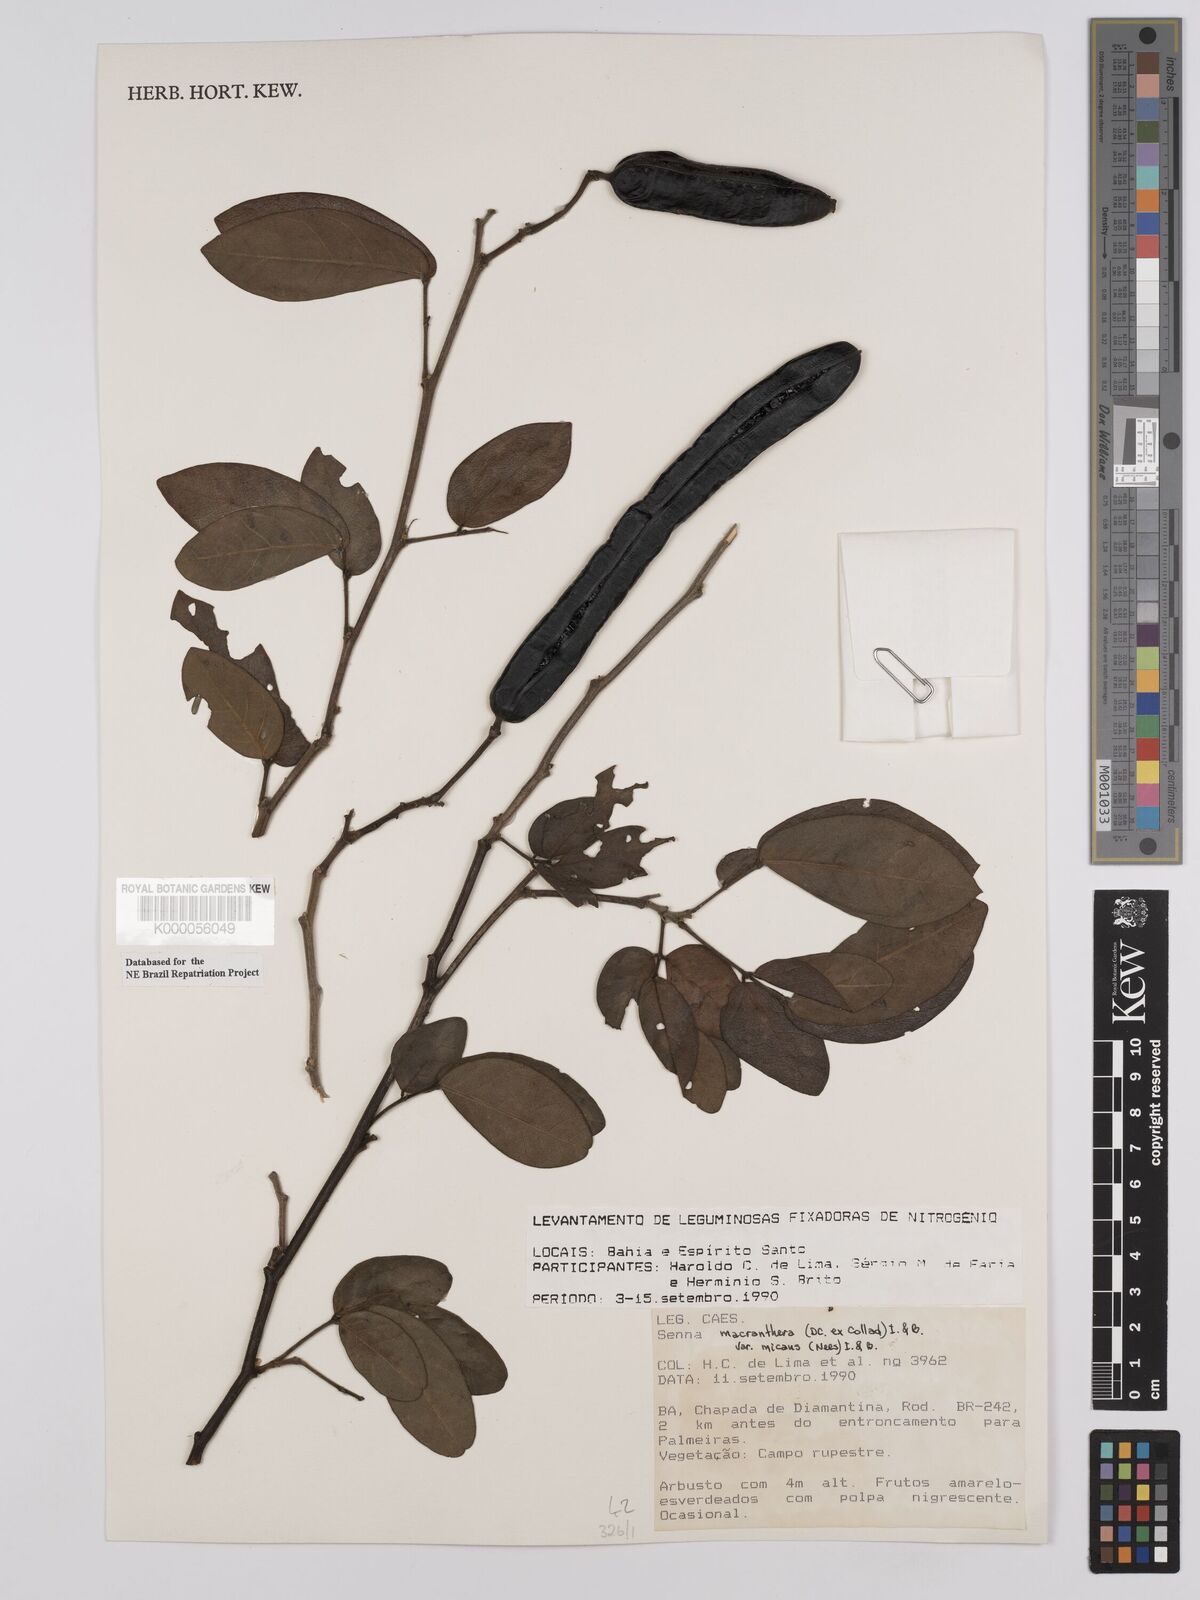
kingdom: Plantae
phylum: Tracheophyta
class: Magnoliopsida
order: Fabales
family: Fabaceae
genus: Senna
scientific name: Senna macranthera
